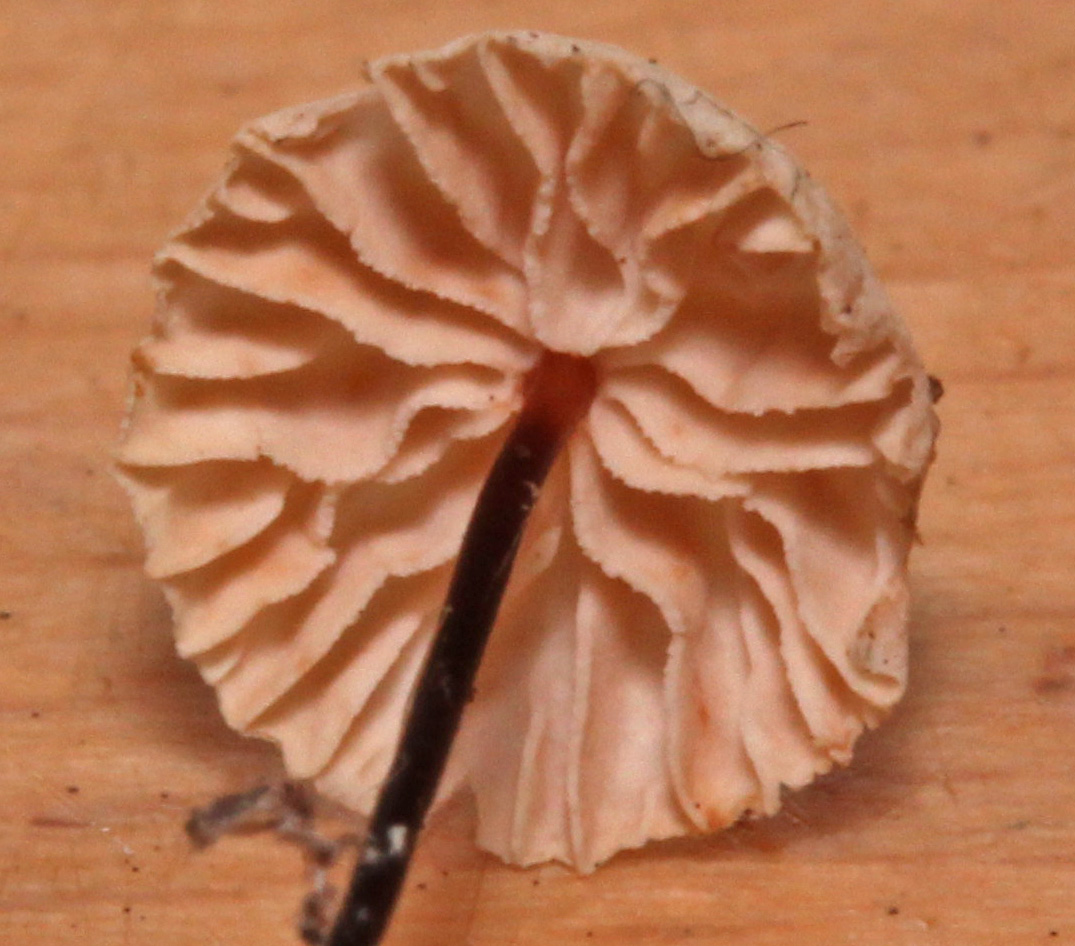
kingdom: Fungi
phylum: Basidiomycota
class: Agaricomycetes
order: Agaricales
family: Omphalotaceae
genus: Paragymnopus
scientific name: Paragymnopus perforans
